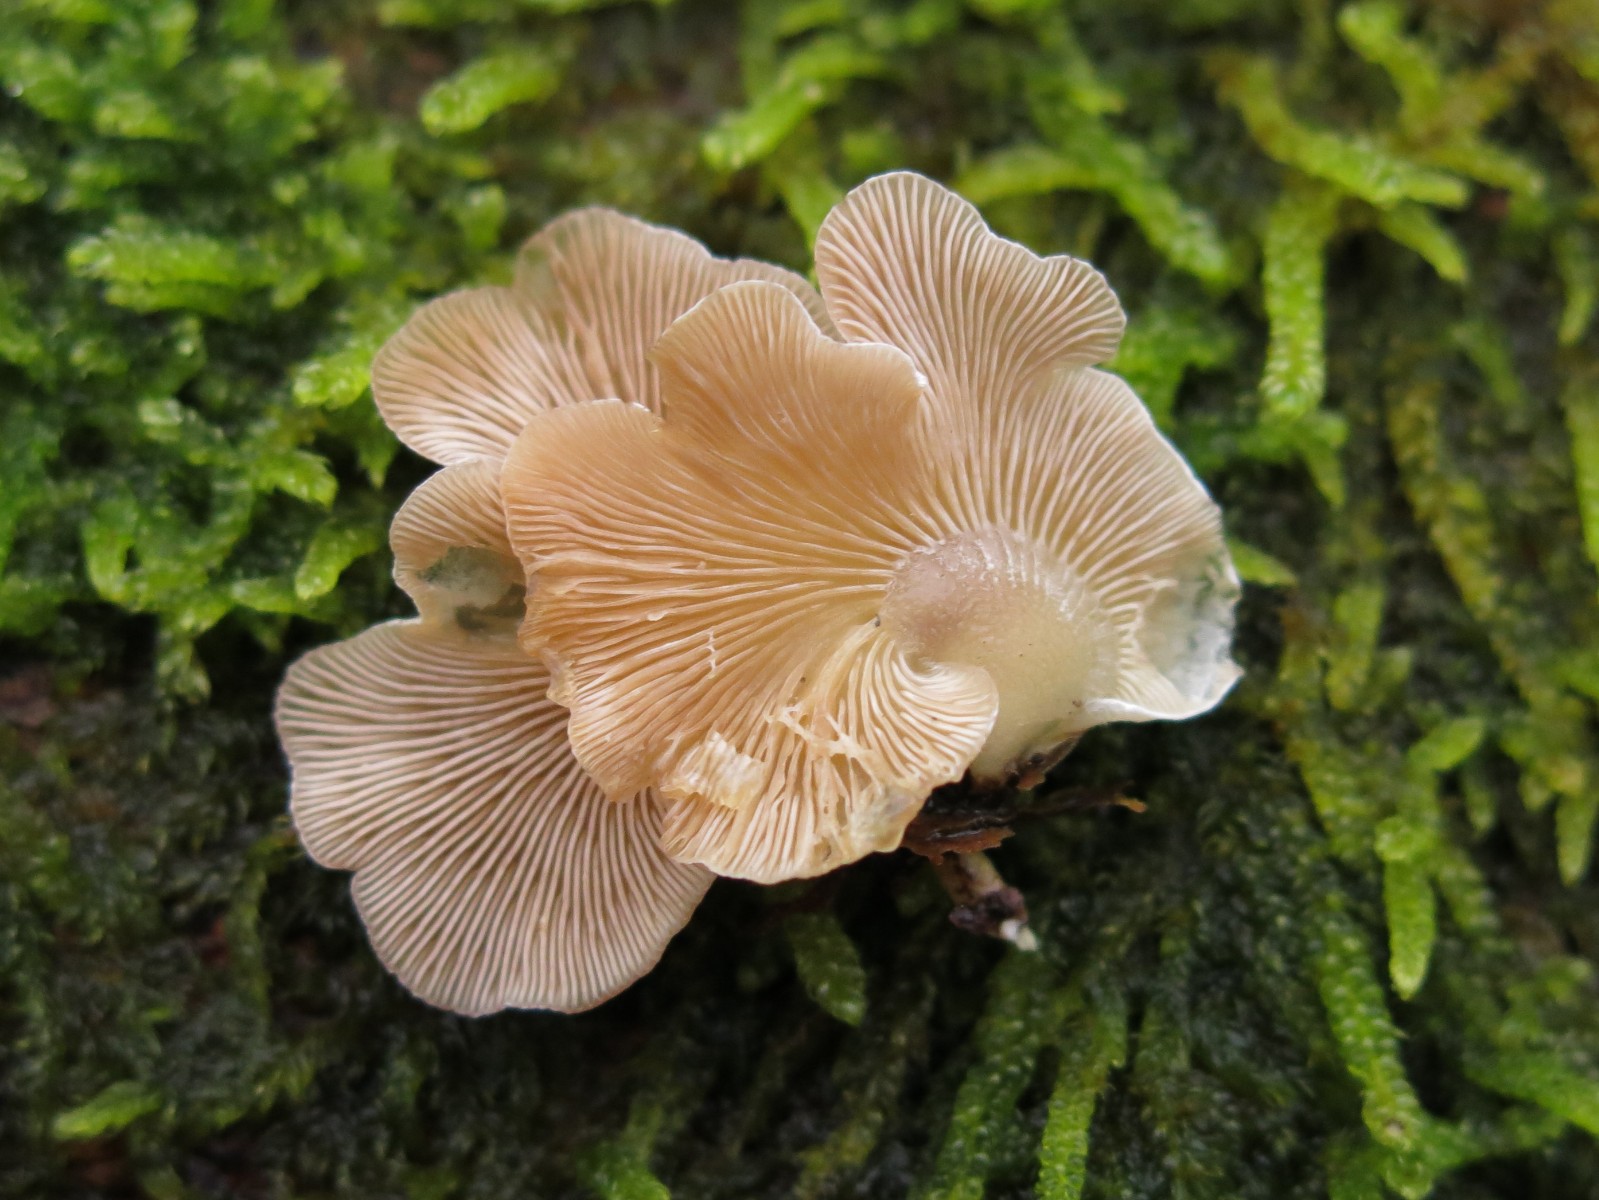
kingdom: Fungi
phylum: Basidiomycota
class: Agaricomycetes
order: Agaricales
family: Mycenaceae
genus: Panellus
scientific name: Panellus mitis
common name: mild epaulethat
